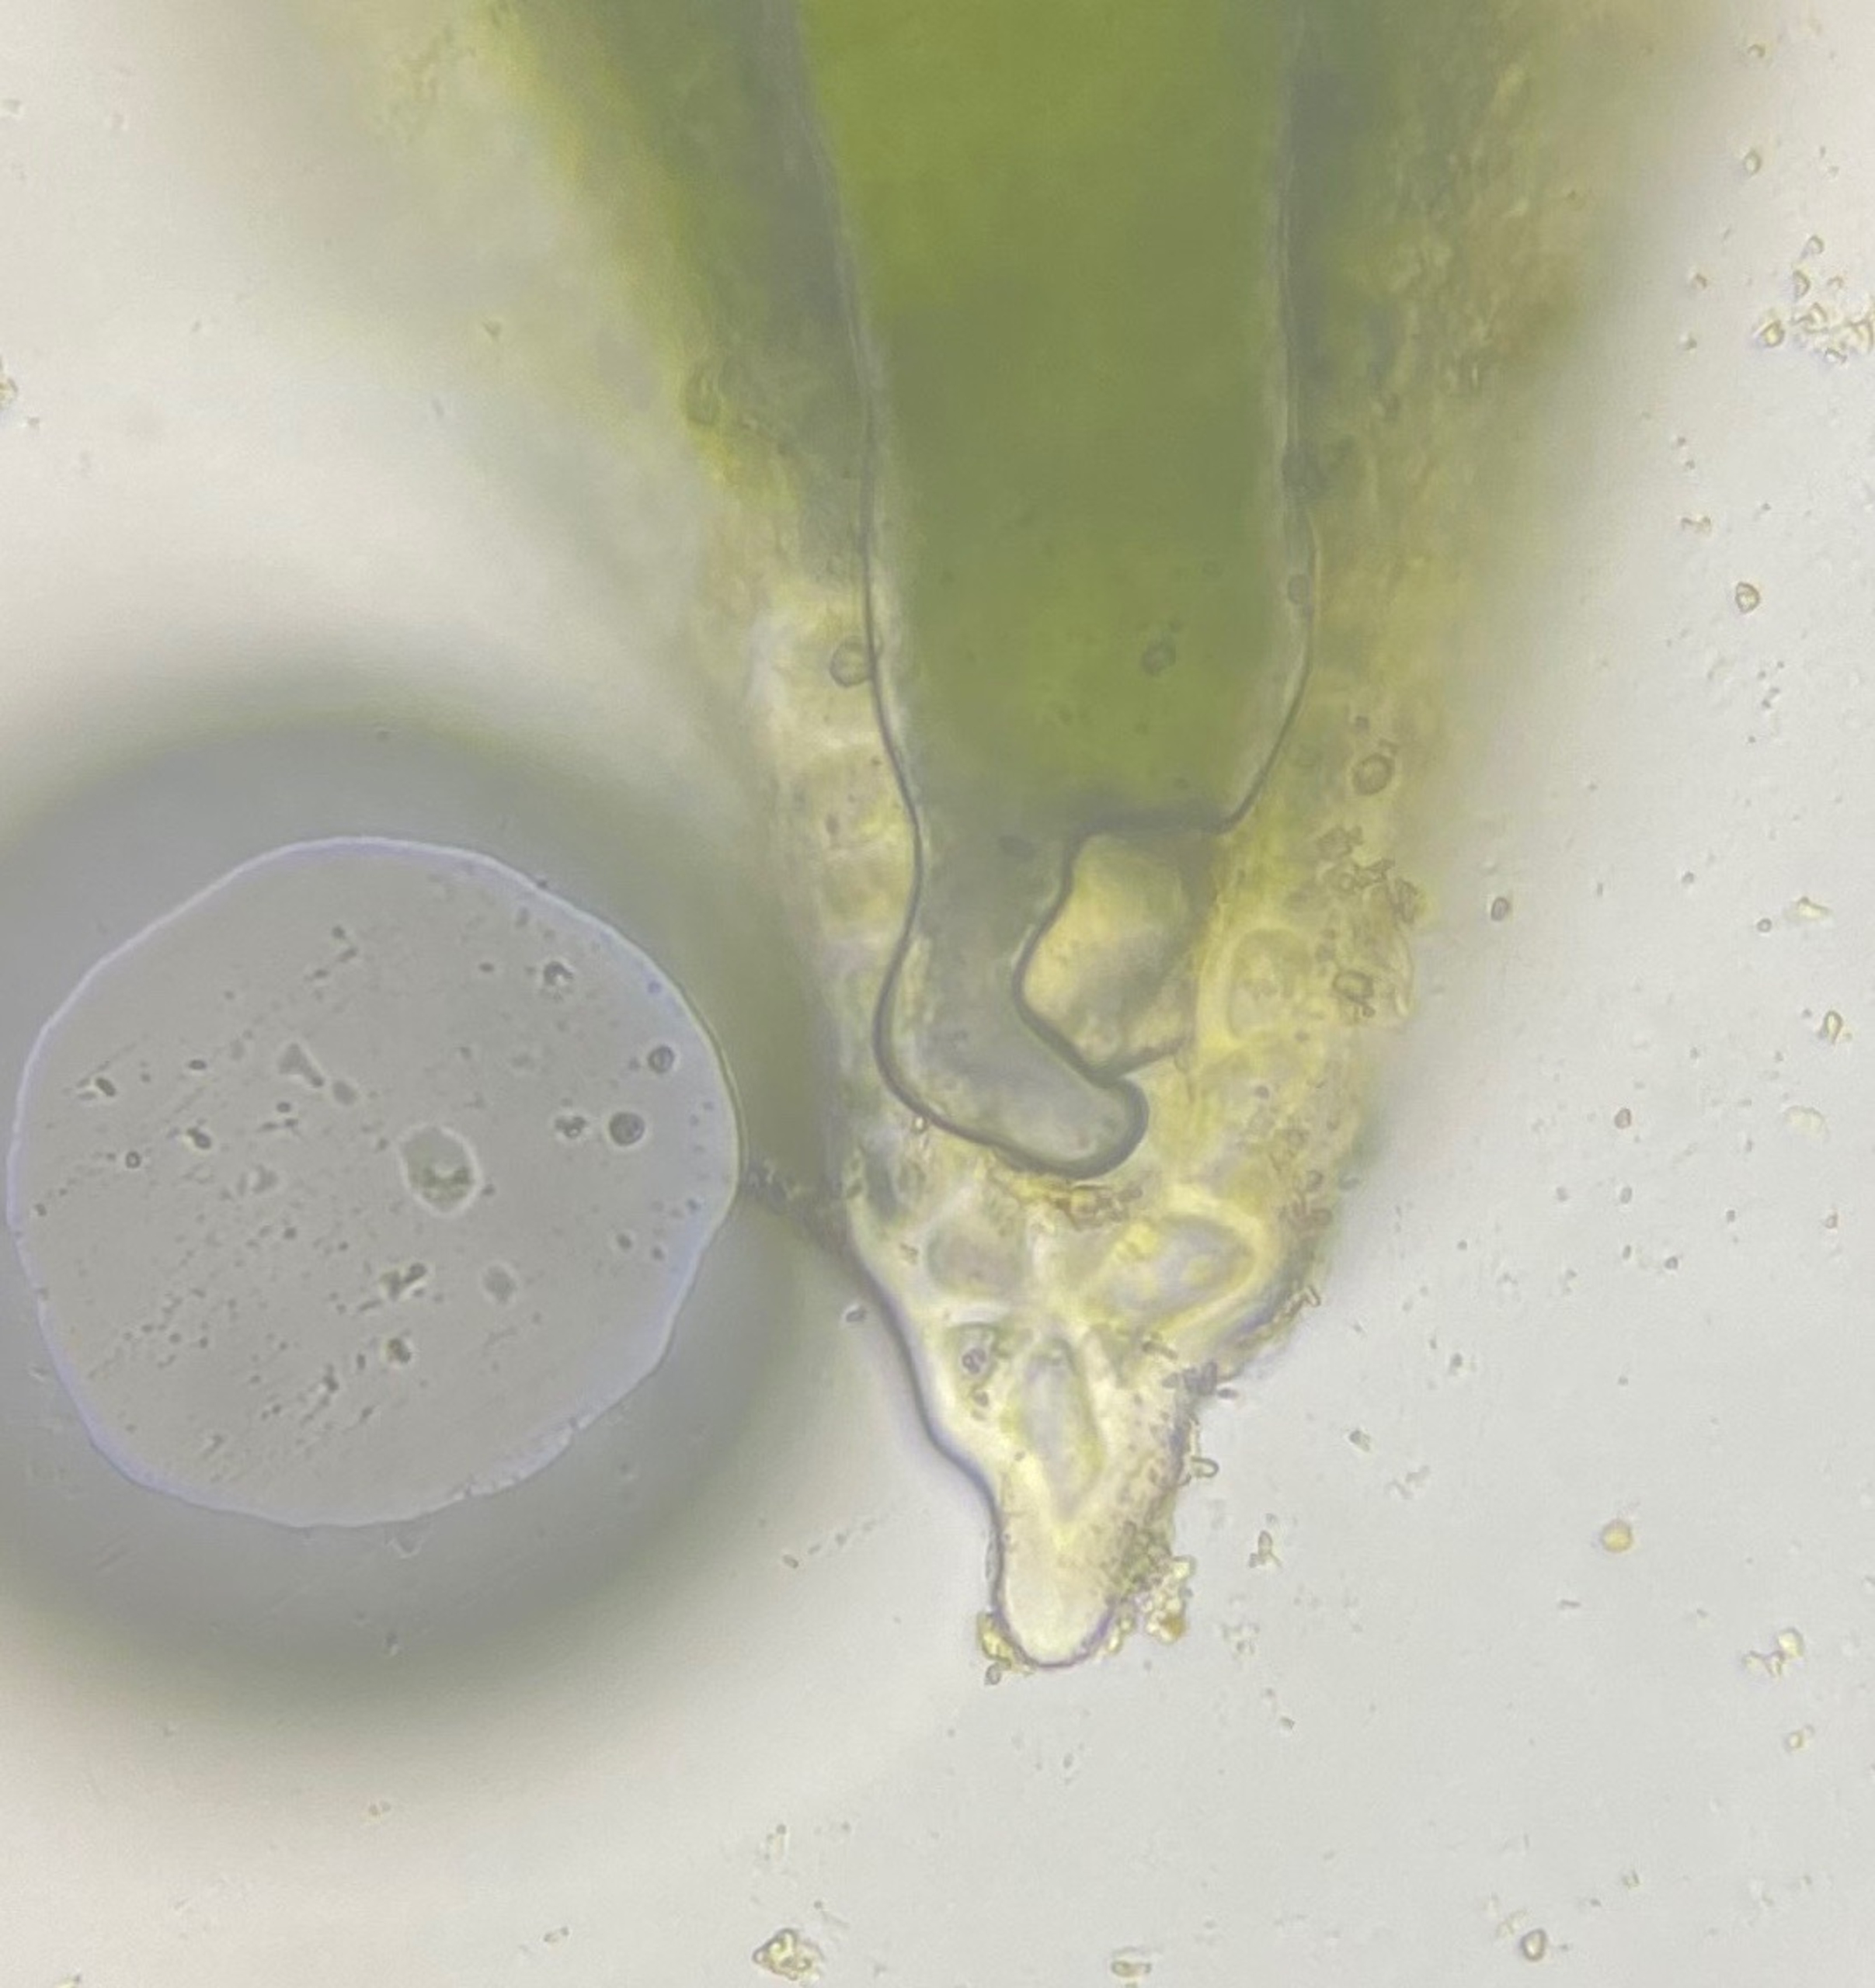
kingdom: Plantae
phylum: Bryophyta
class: Bryopsida
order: Pottiales
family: Pottiaceae
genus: Aloina
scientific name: Aloina aloides
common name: Spidsbladet tøffelmos
